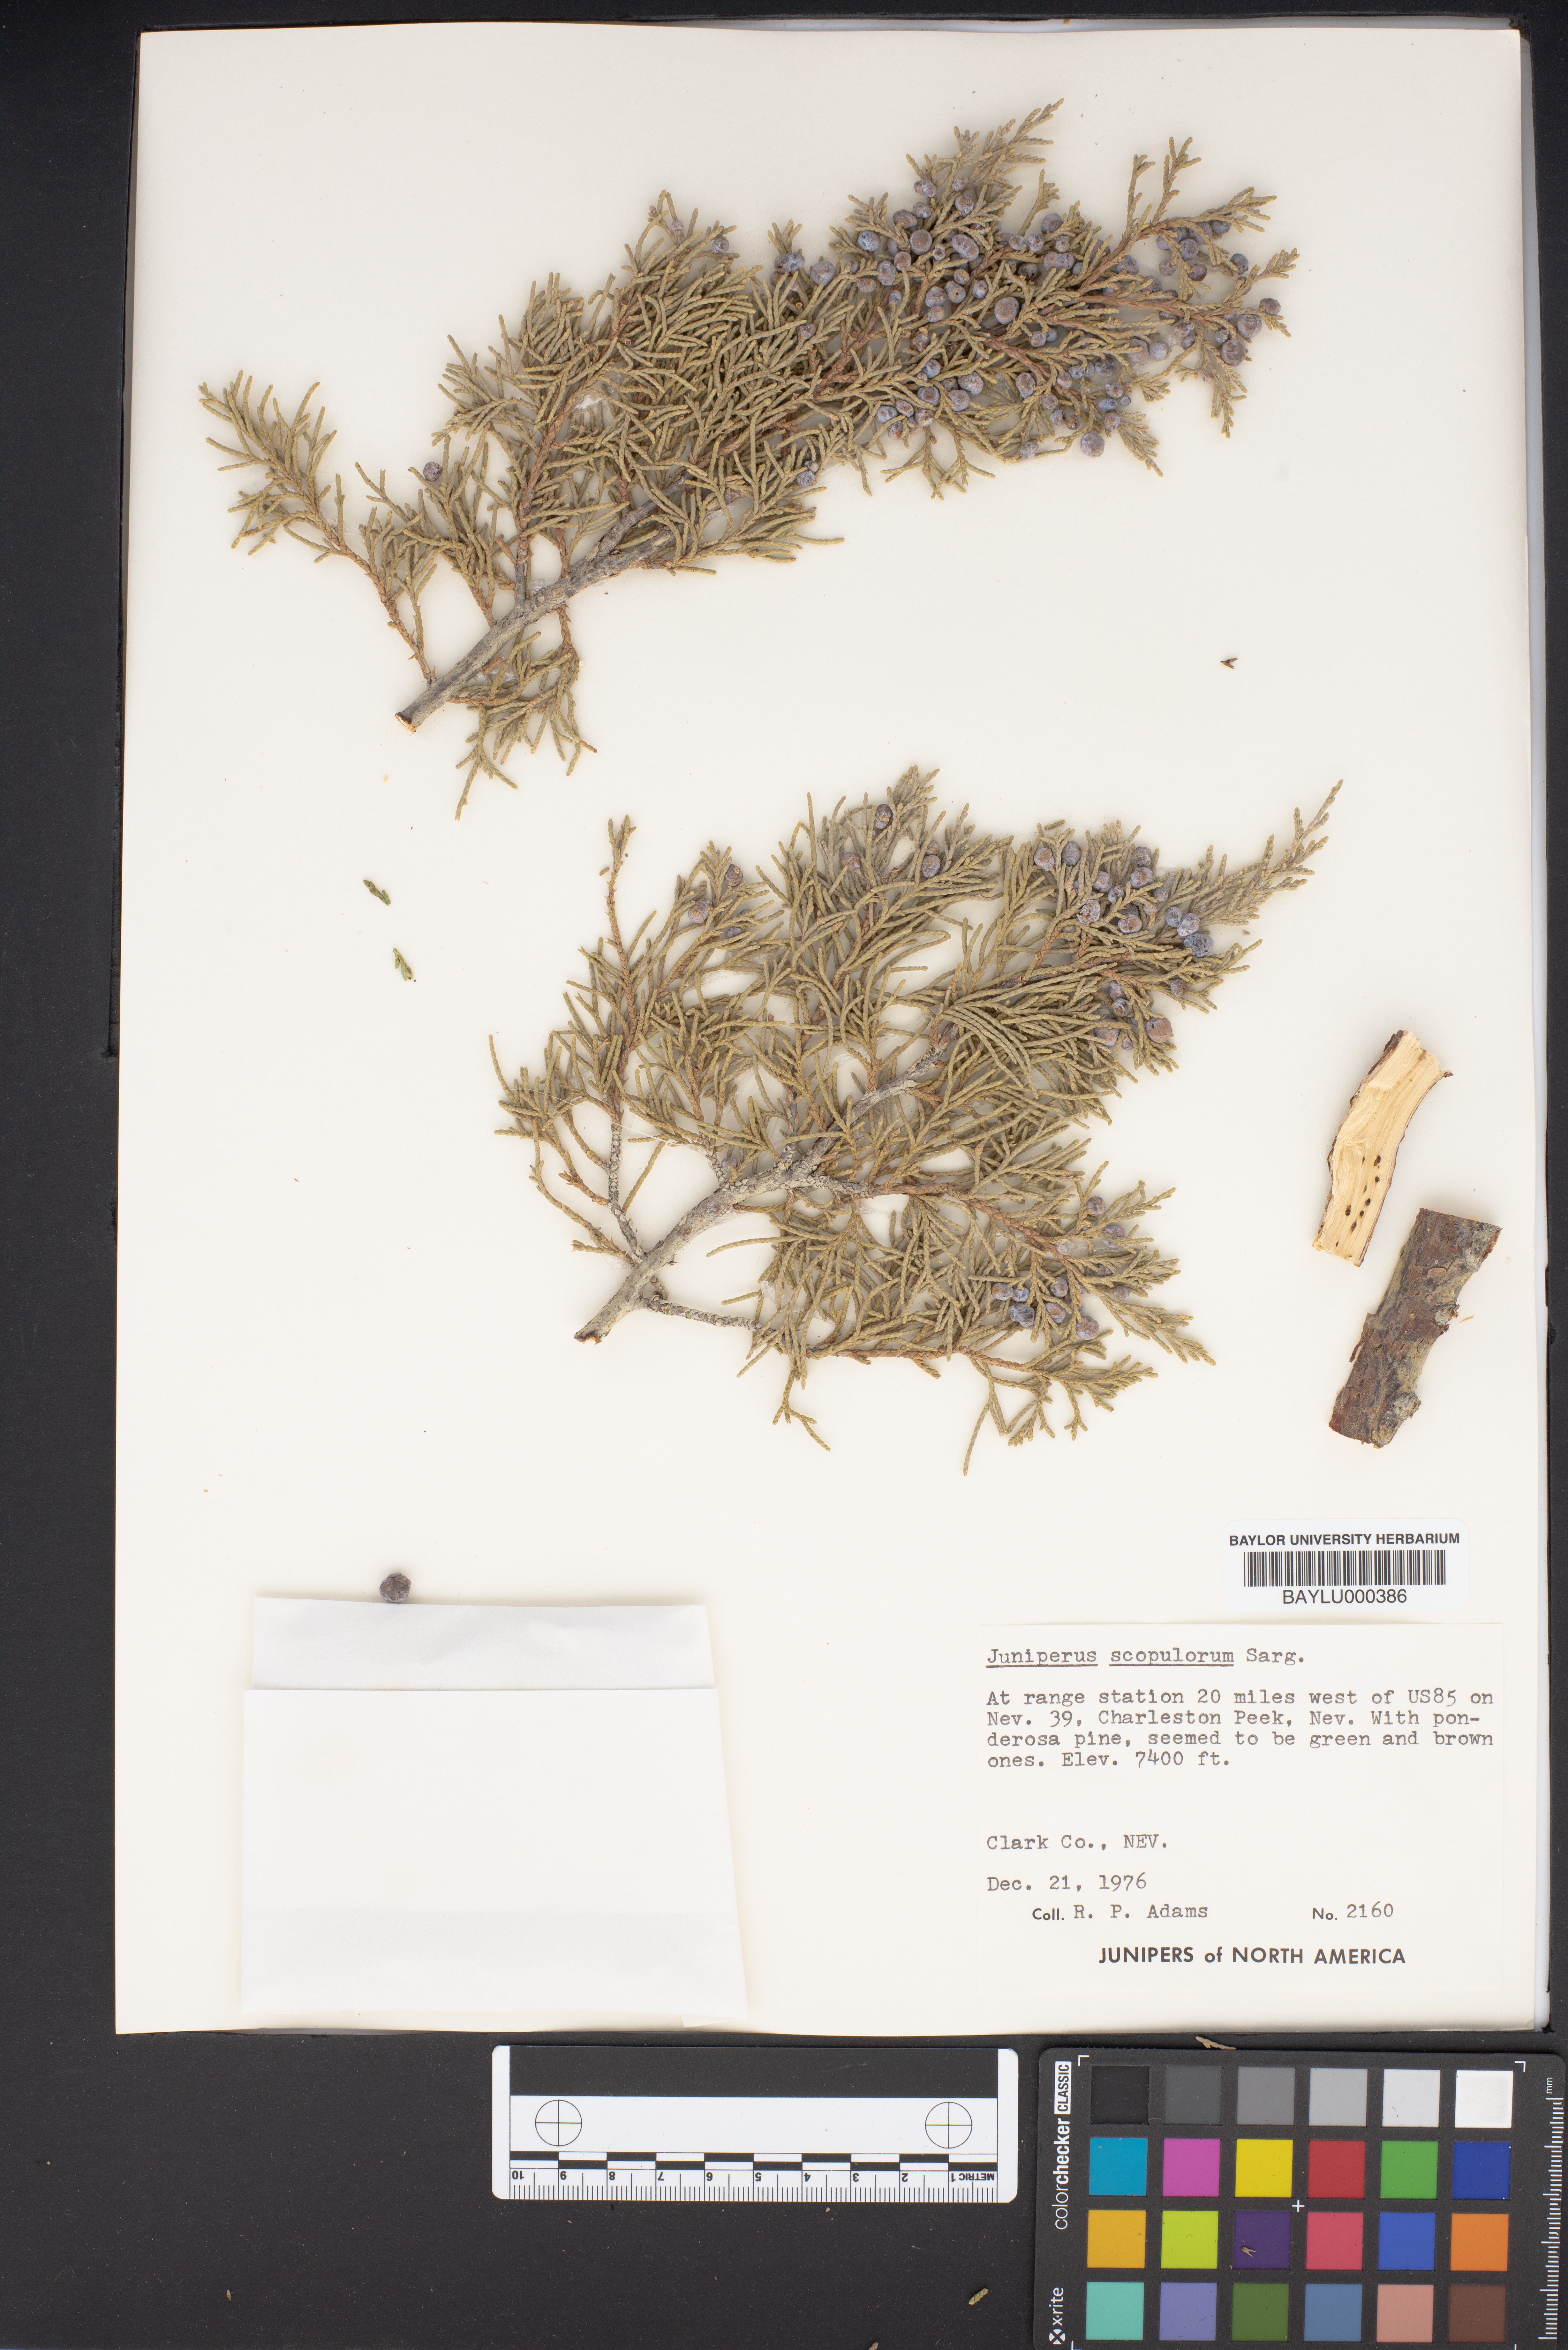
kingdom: Plantae
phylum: Tracheophyta
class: Pinopsida
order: Pinales
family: Cupressaceae
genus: Juniperus
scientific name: Juniperus scopulorum
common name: Rocky mountain juniper
